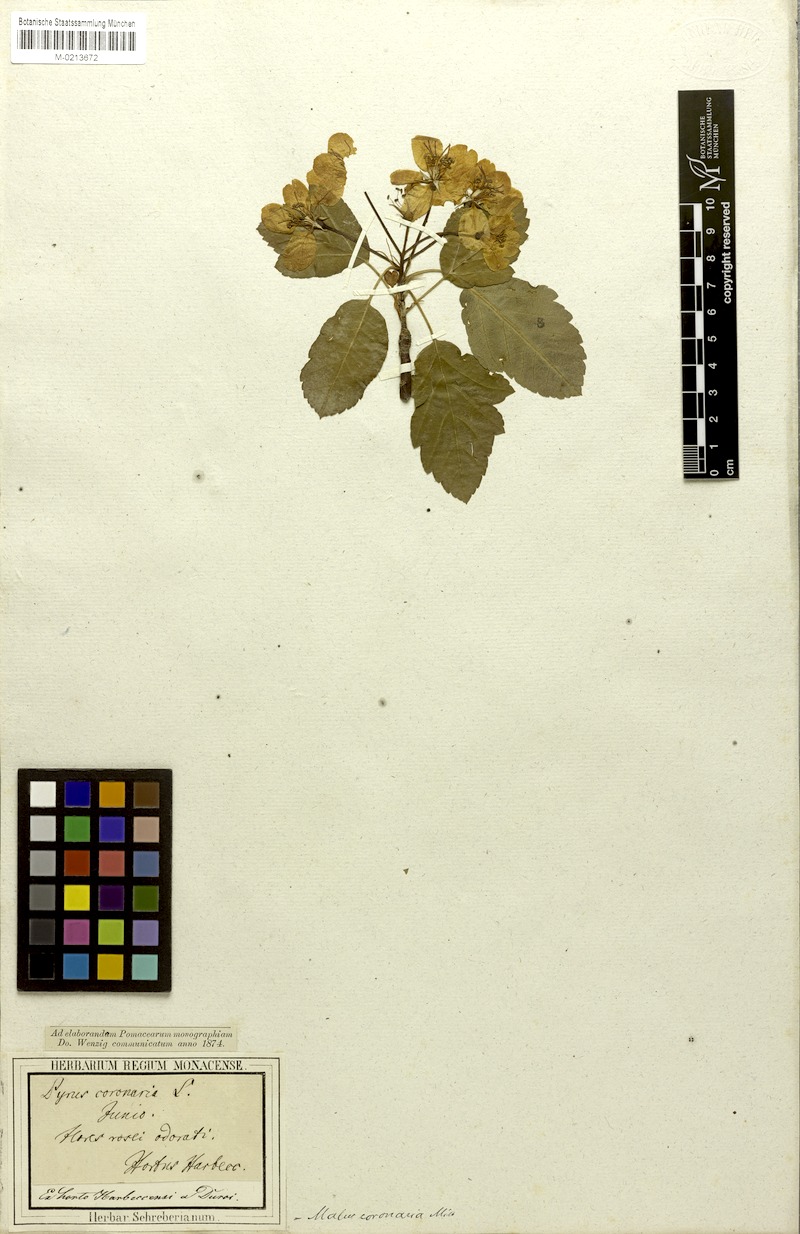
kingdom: Plantae
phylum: Tracheophyta
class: Magnoliopsida
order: Rosales
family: Rosaceae
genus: Malus
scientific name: Malus coronaria
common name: Sweet crab apple
